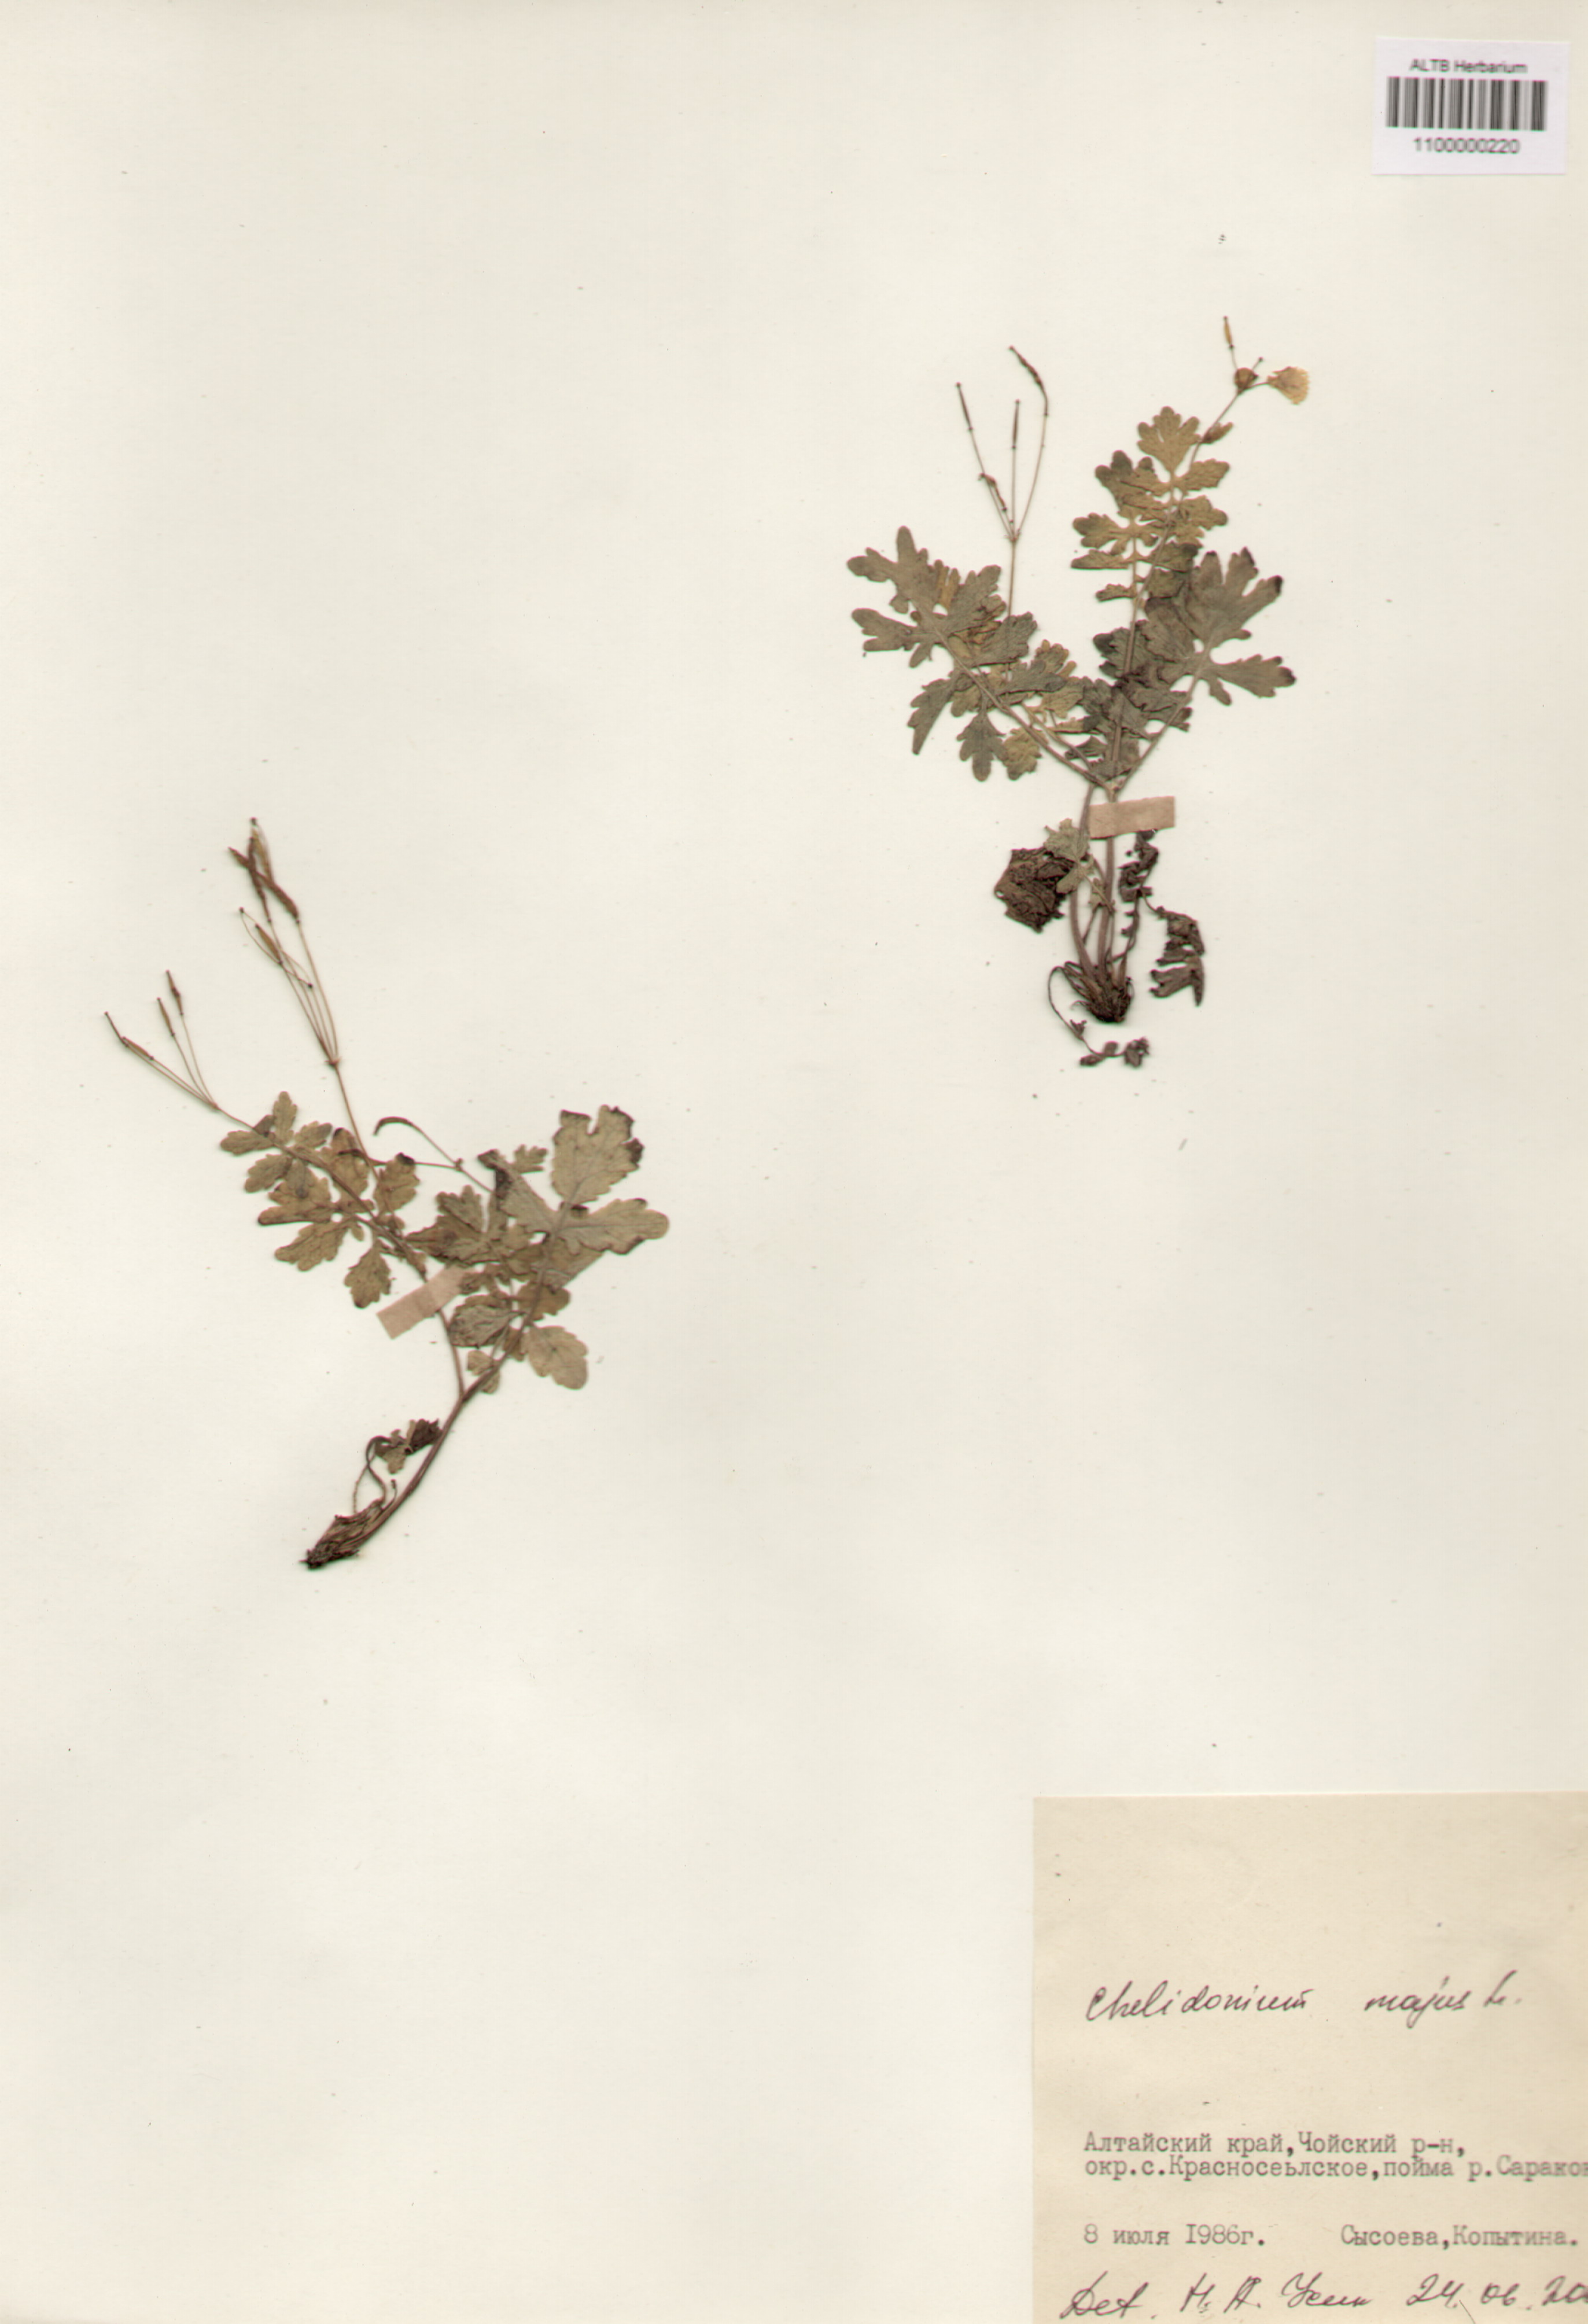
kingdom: Plantae
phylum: Tracheophyta
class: Magnoliopsida
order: Ranunculales
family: Papaveraceae
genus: Chelidonium
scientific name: Chelidonium majus
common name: Greater celandine
